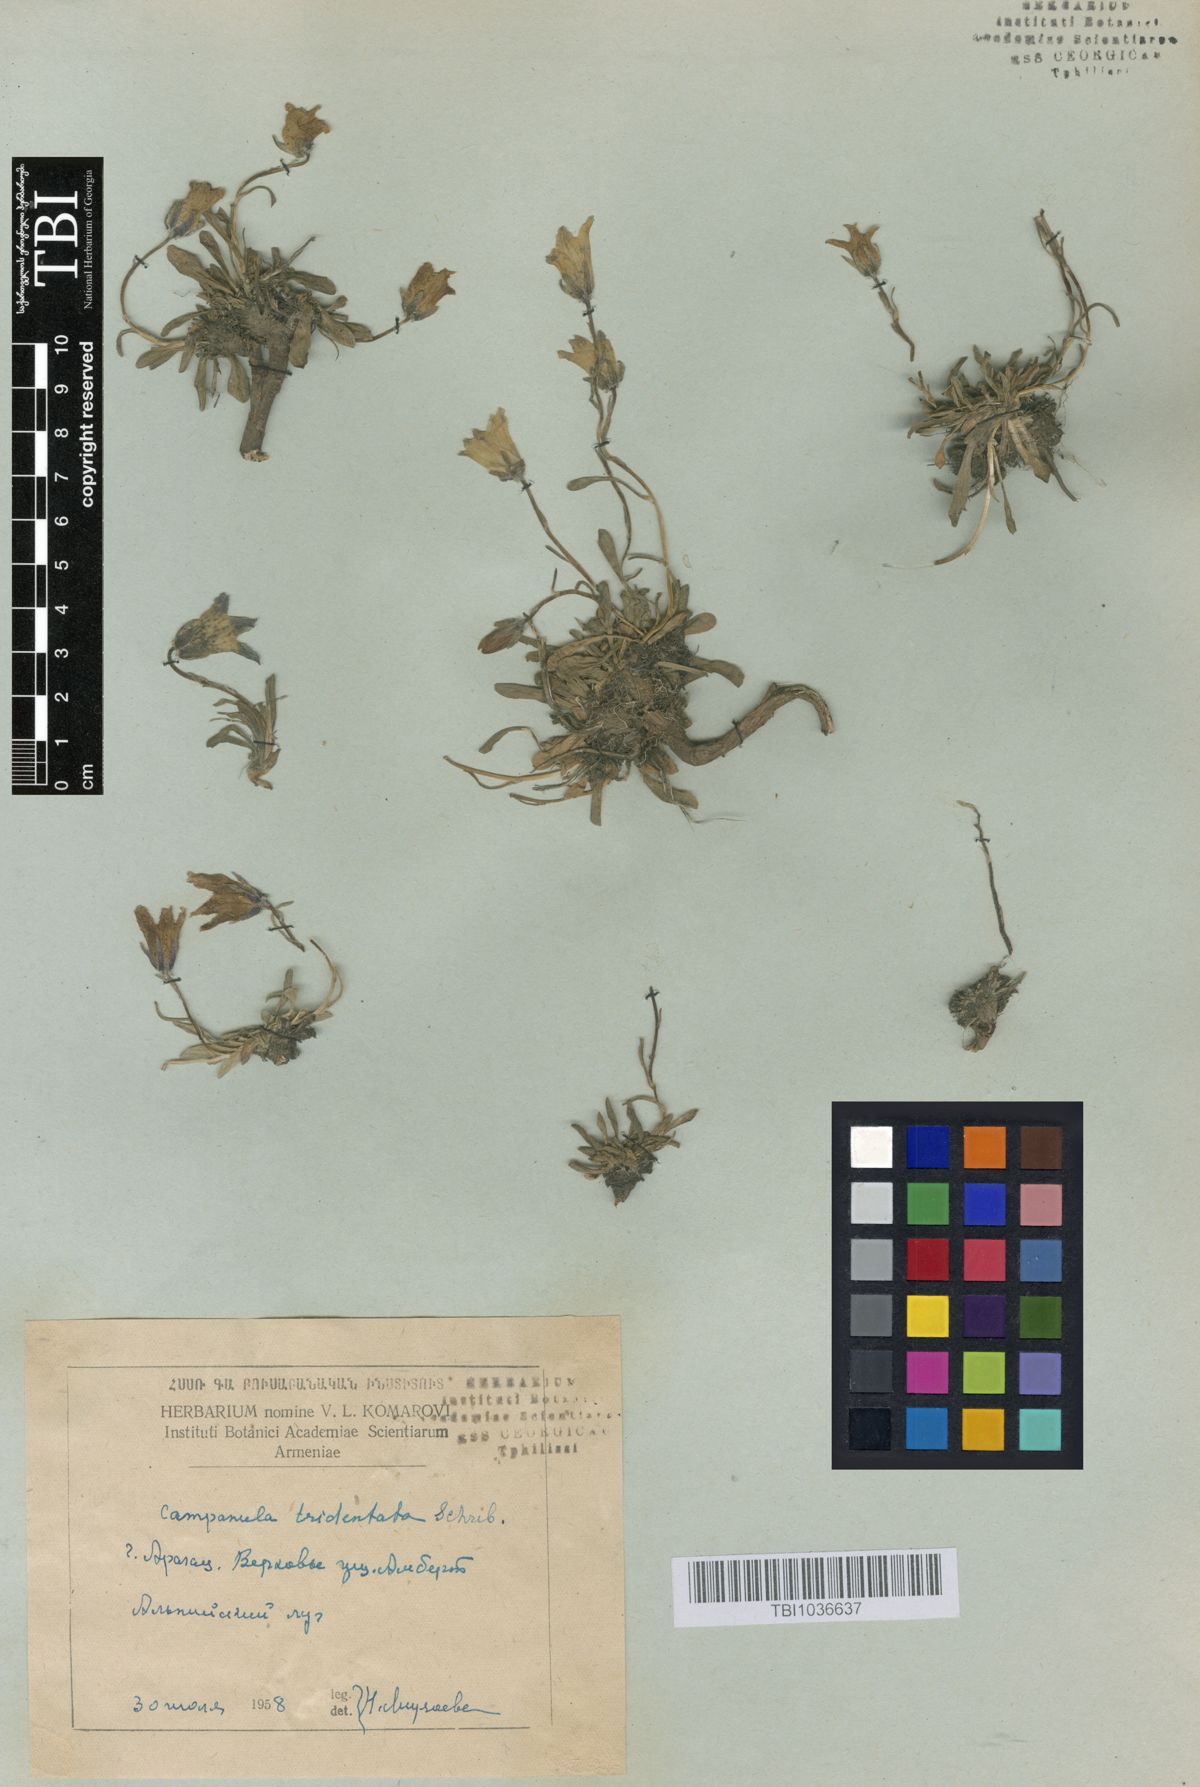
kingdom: Plantae
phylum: Tracheophyta
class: Magnoliopsida
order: Asterales
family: Campanulaceae
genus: Campanula
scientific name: Campanula tridentata
